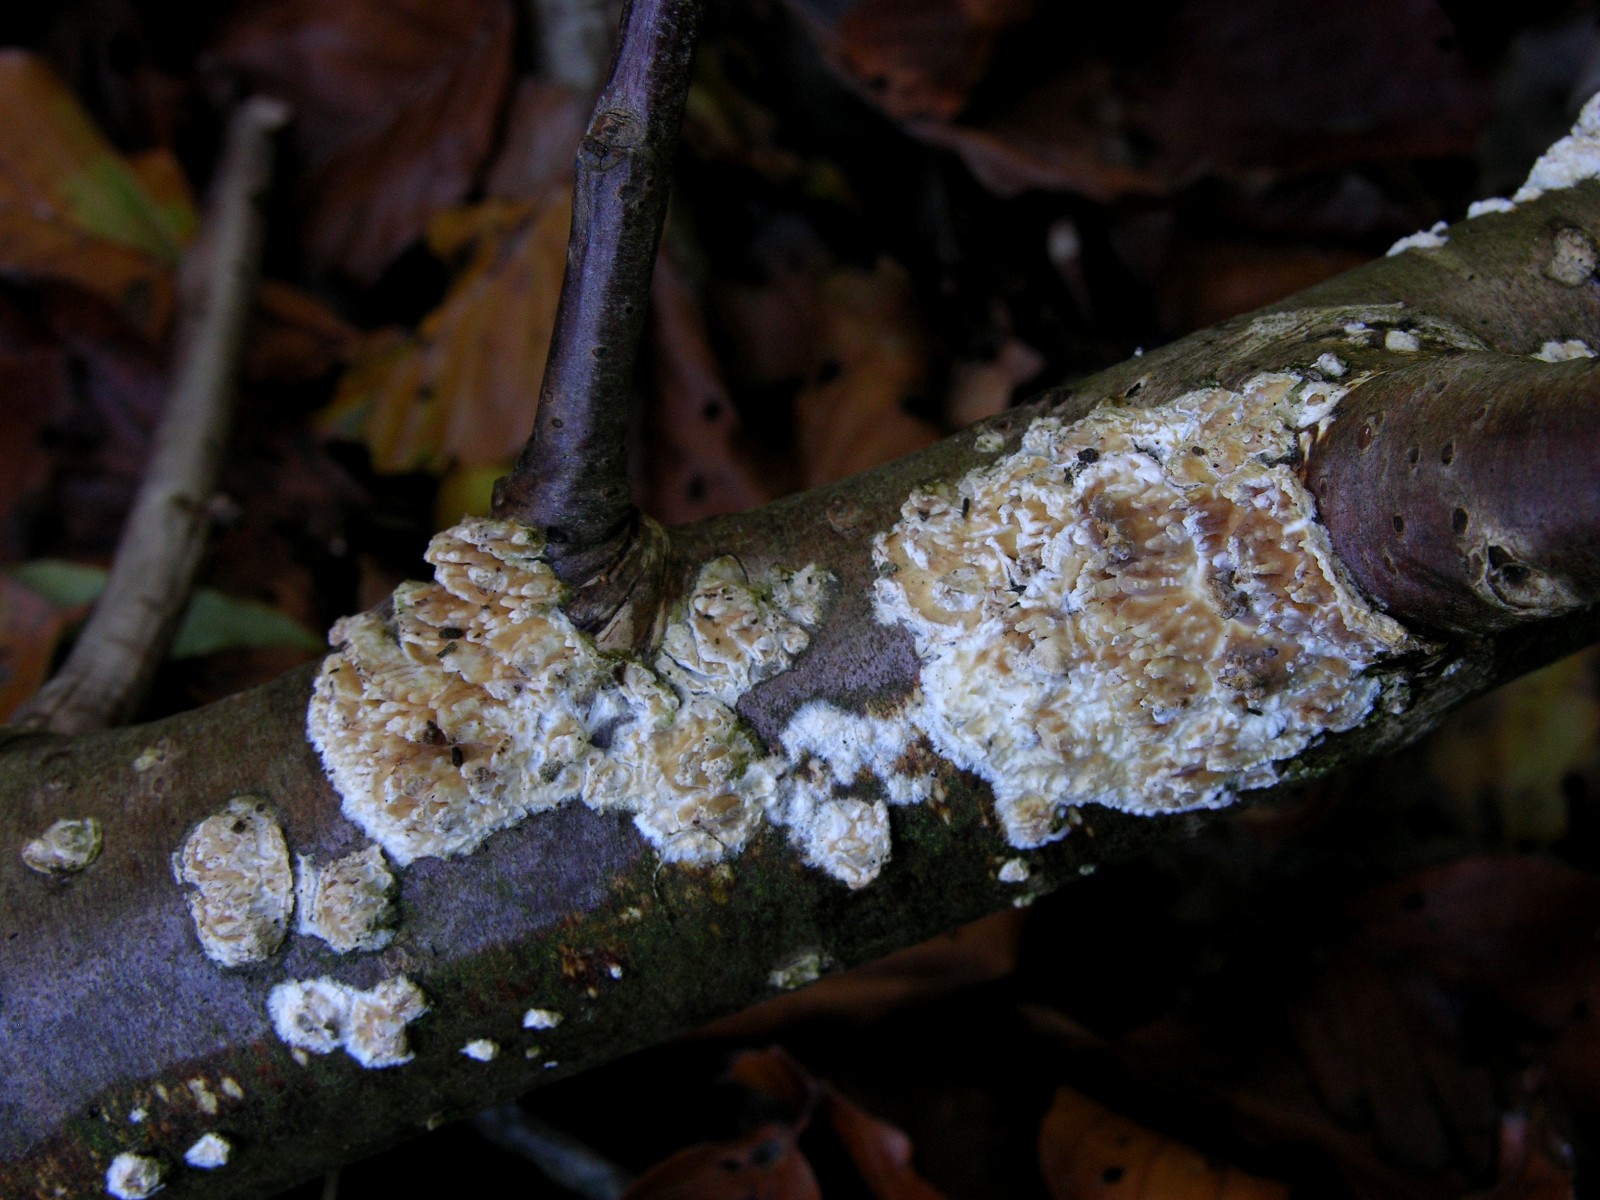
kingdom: Fungi
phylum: Basidiomycota
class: Agaricomycetes
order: Hymenochaetales
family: Schizoporaceae
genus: Xylodon
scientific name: Xylodon radula
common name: grovtandet kalkskind
